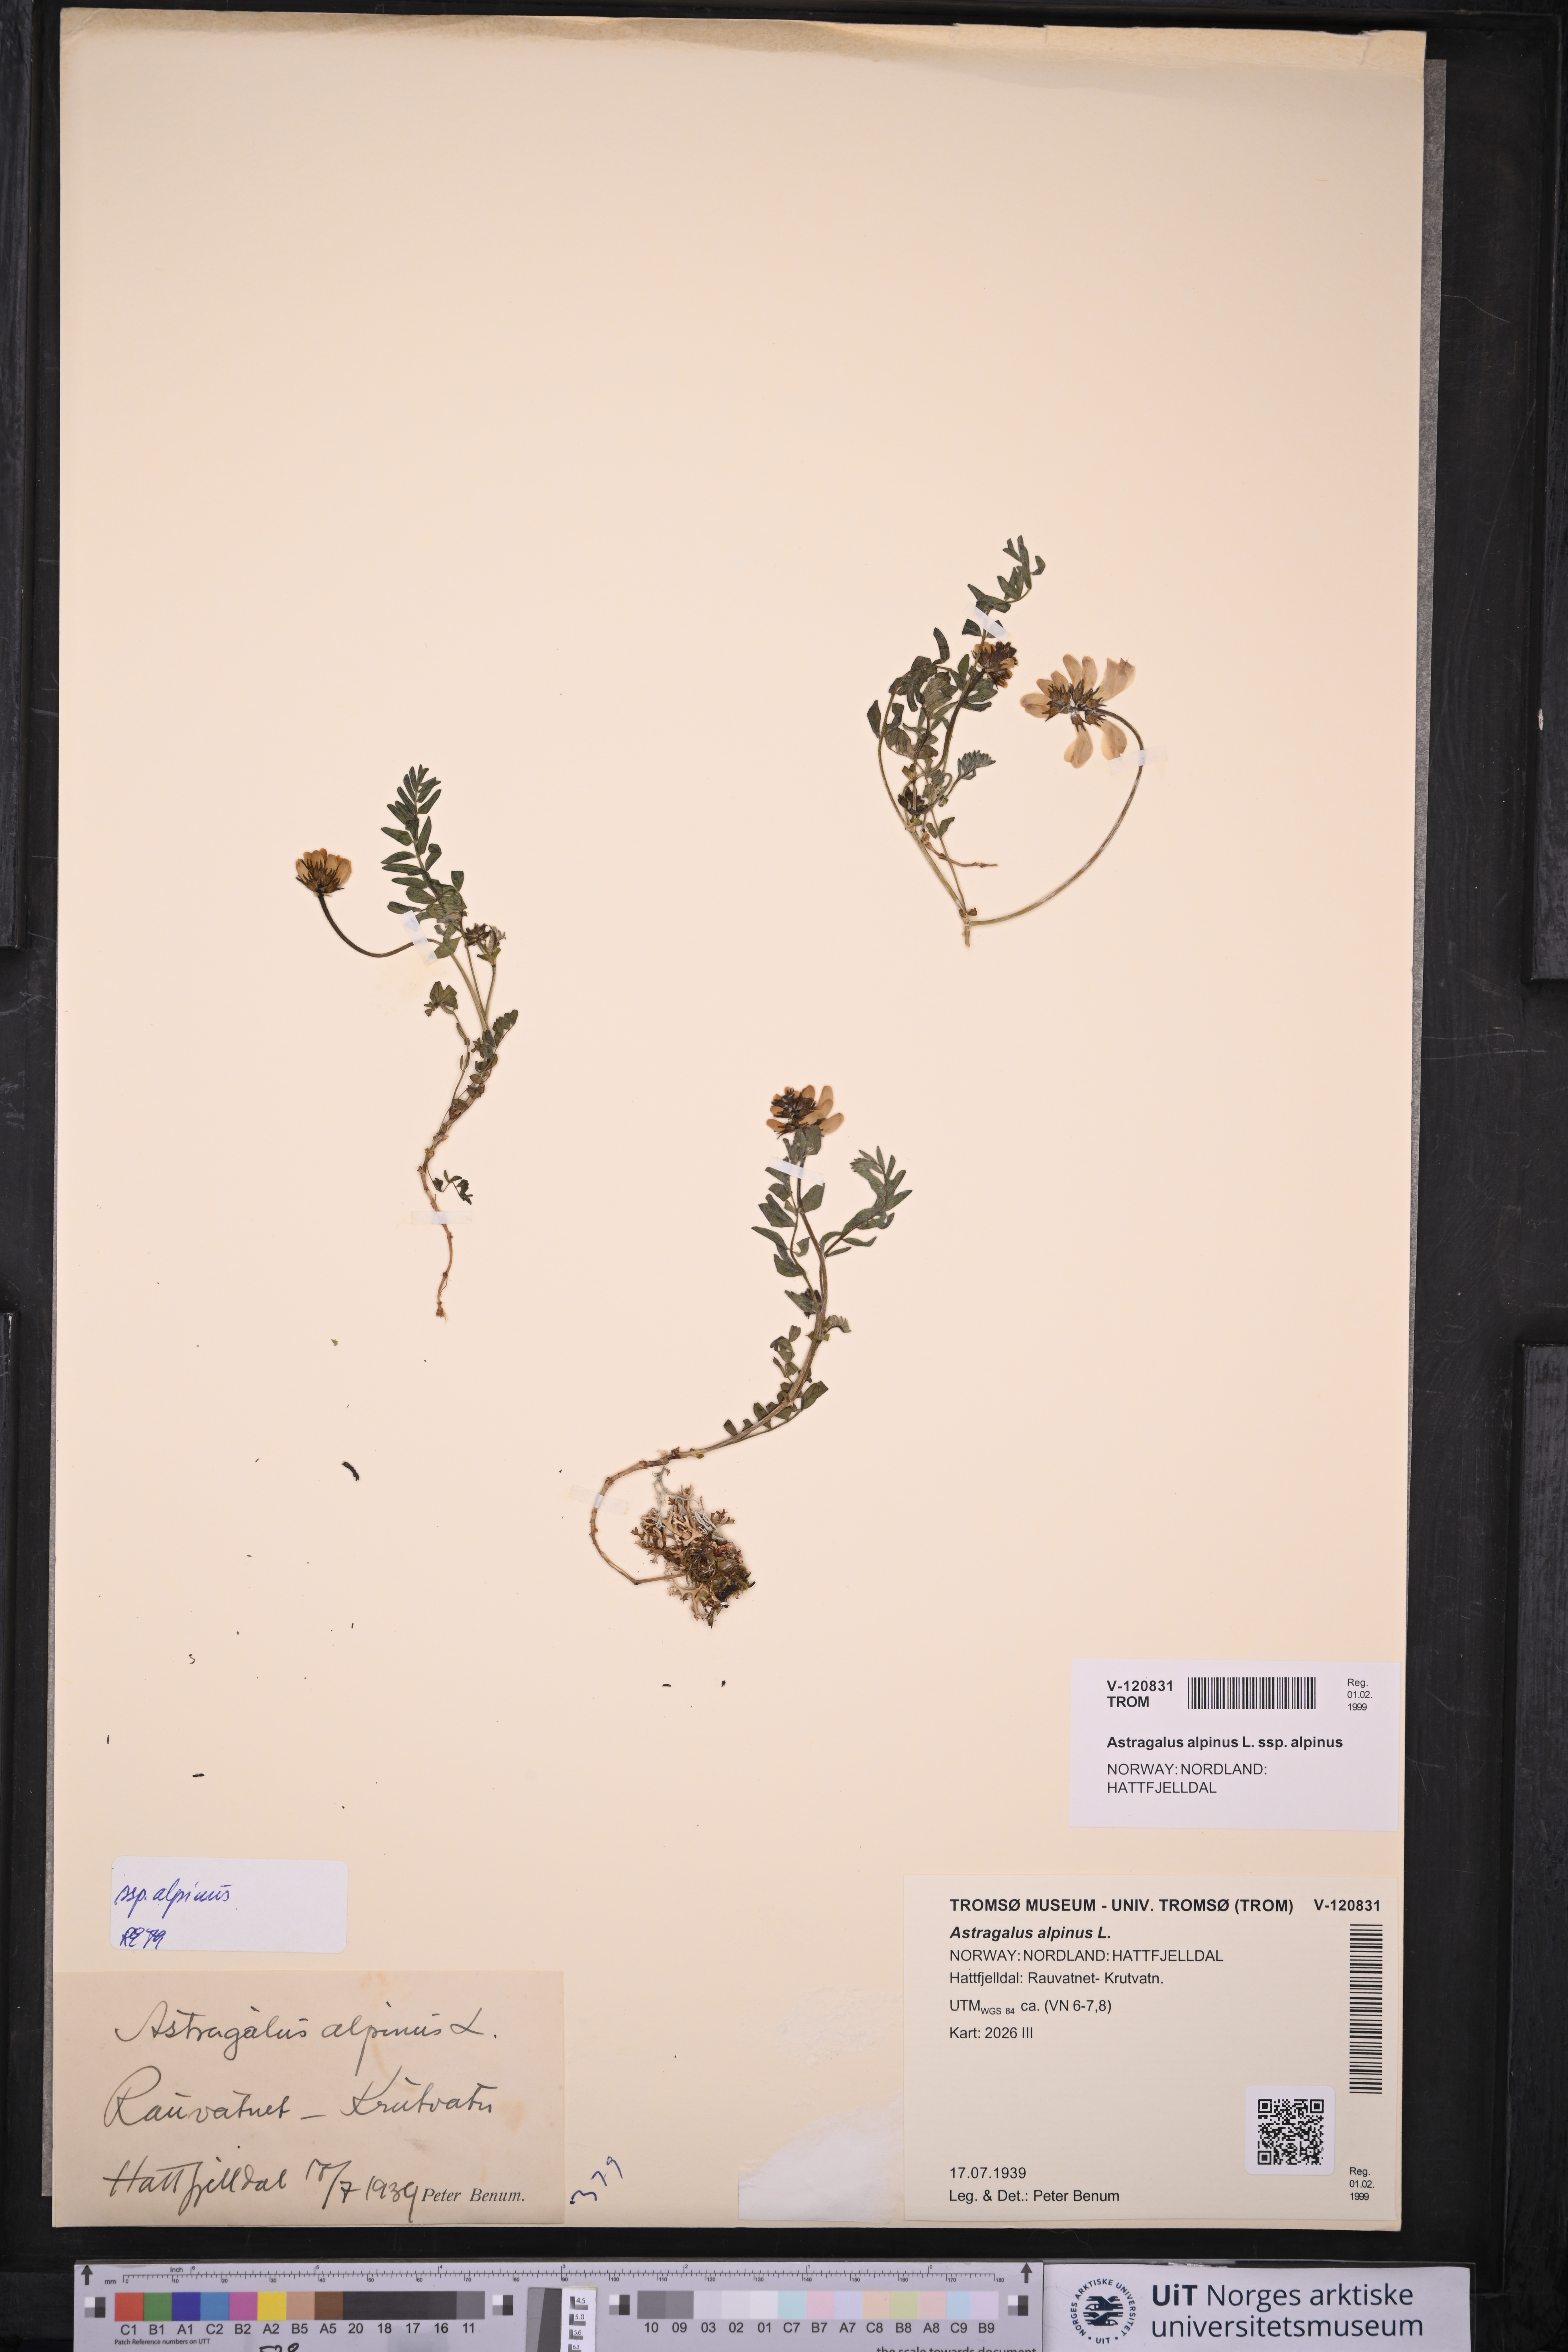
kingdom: Plantae
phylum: Tracheophyta
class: Magnoliopsida
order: Fabales
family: Fabaceae
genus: Astragalus
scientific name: Astragalus alpinus
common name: Alpine milk-vetch
